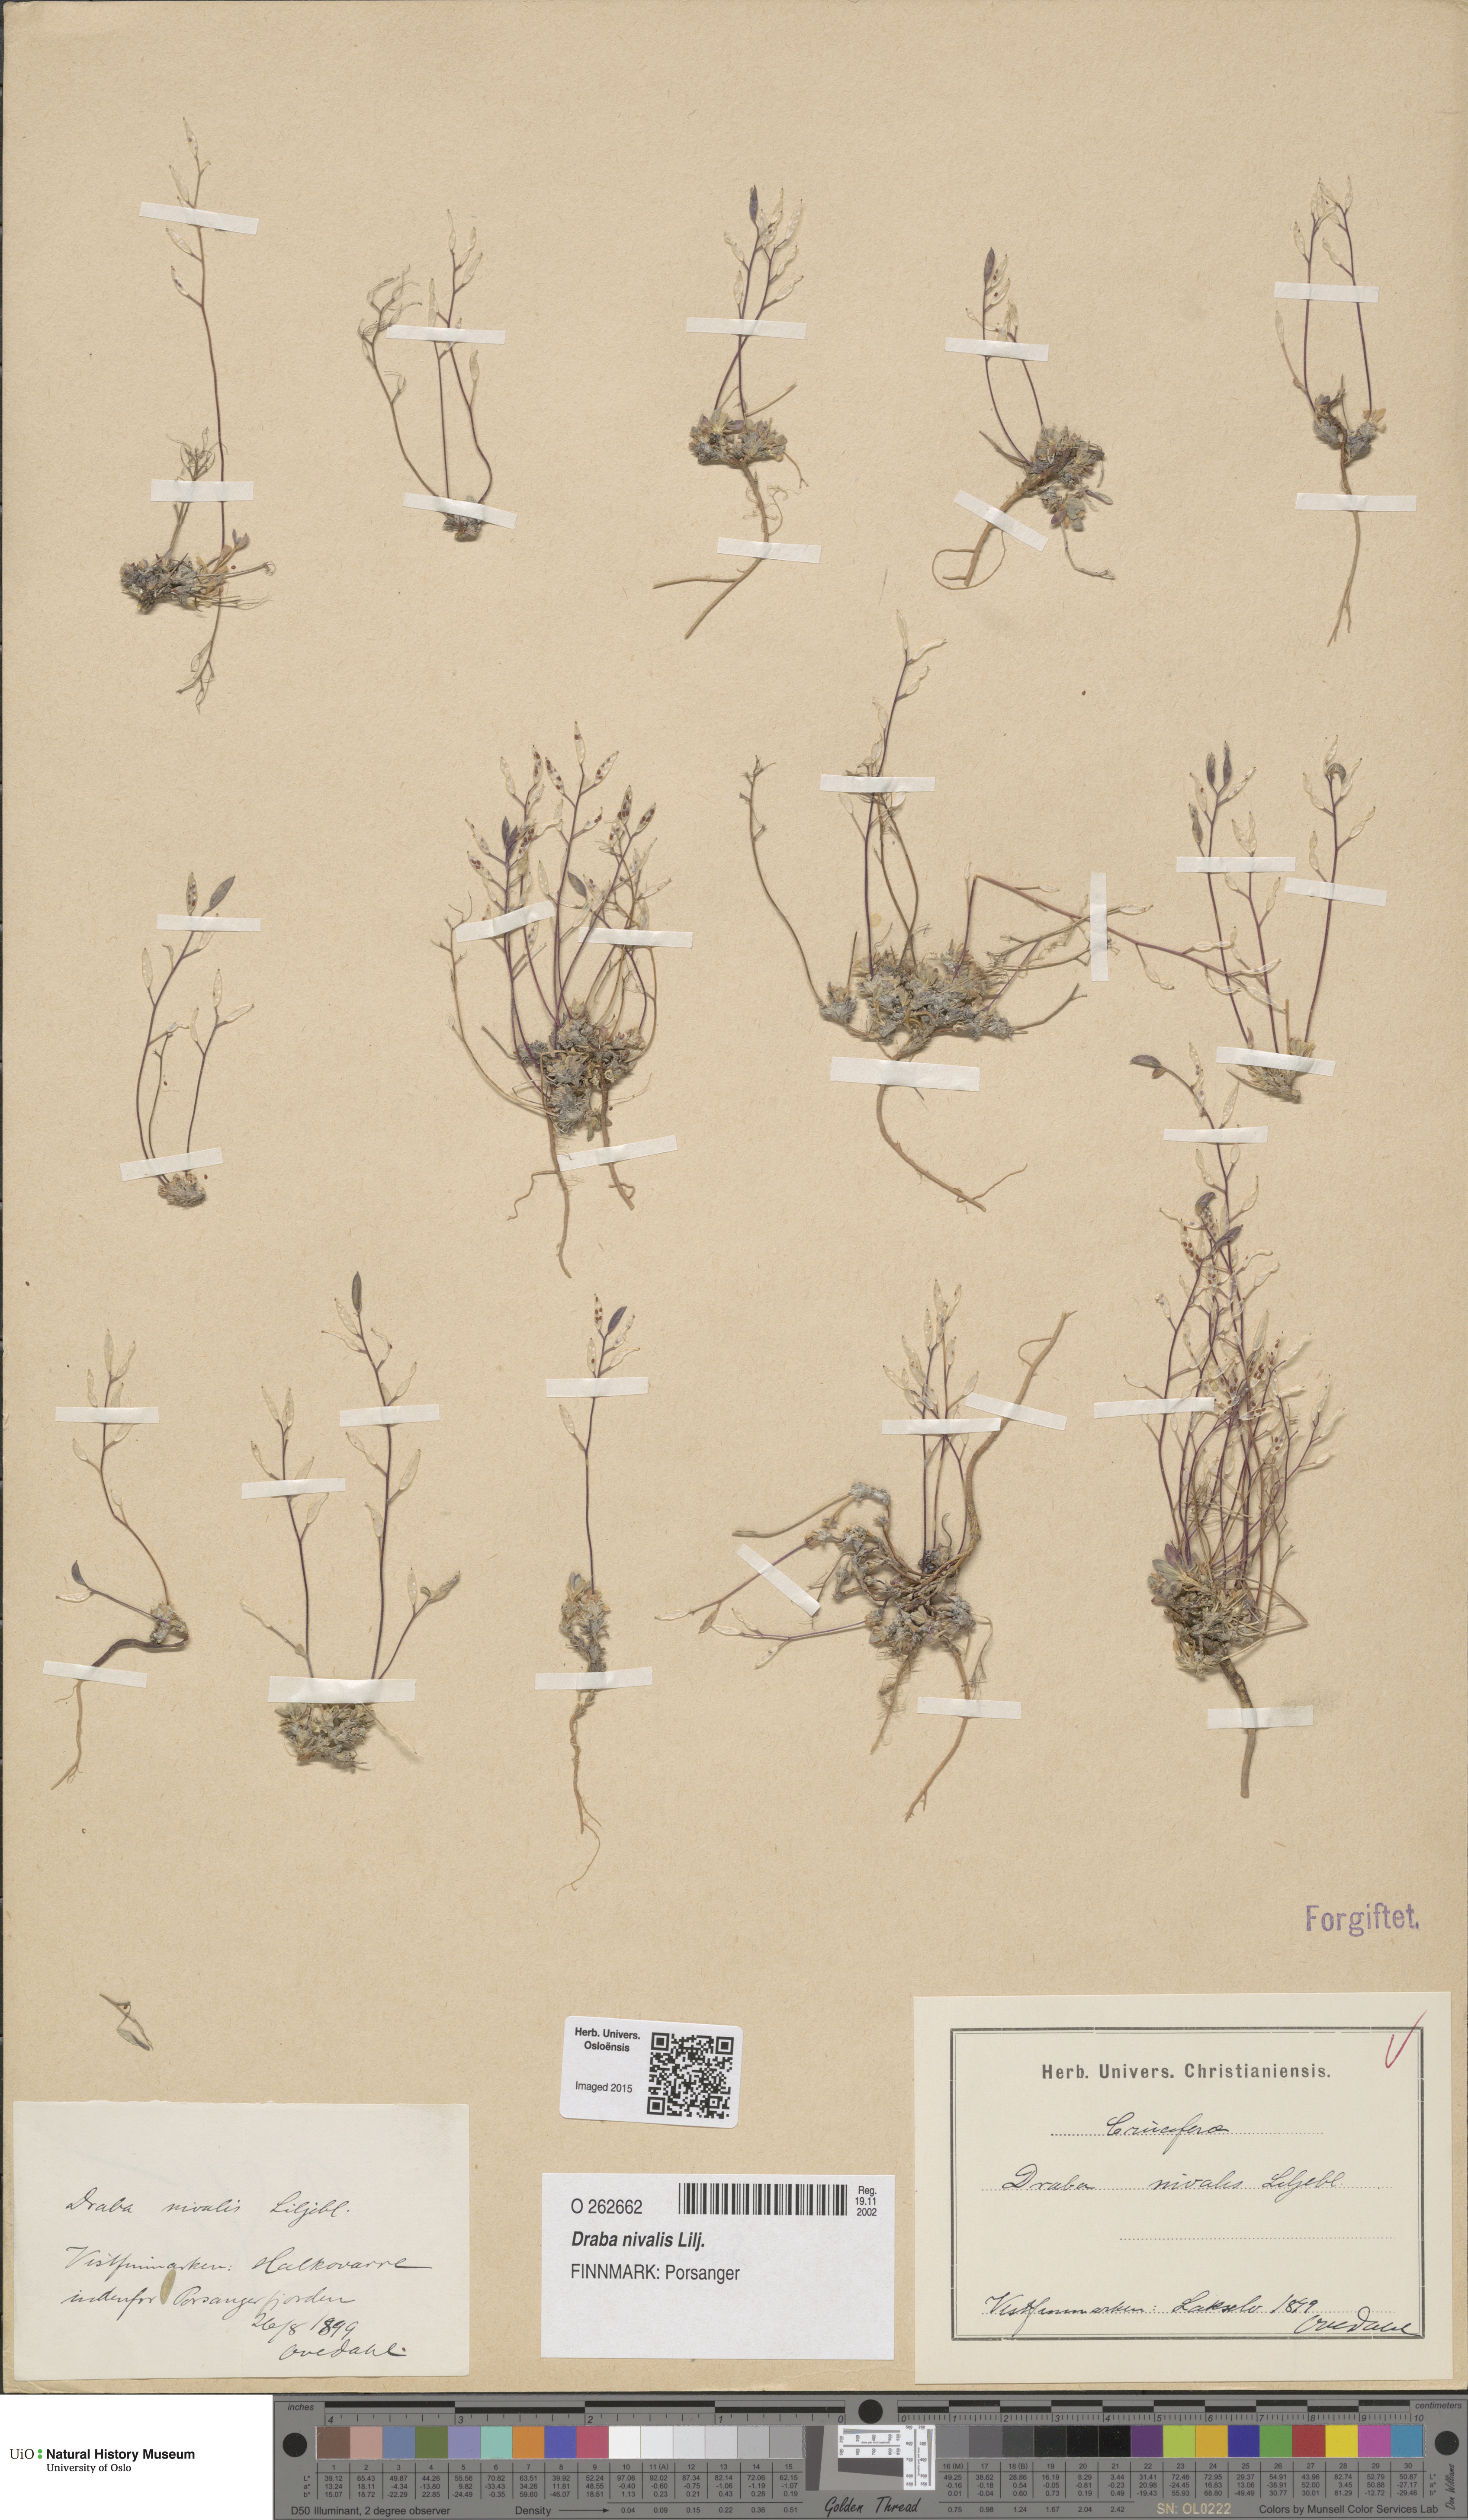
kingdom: Plantae
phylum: Tracheophyta
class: Magnoliopsida
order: Brassicales
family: Brassicaceae
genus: Draba
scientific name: Draba nivalis
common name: Snow draba
